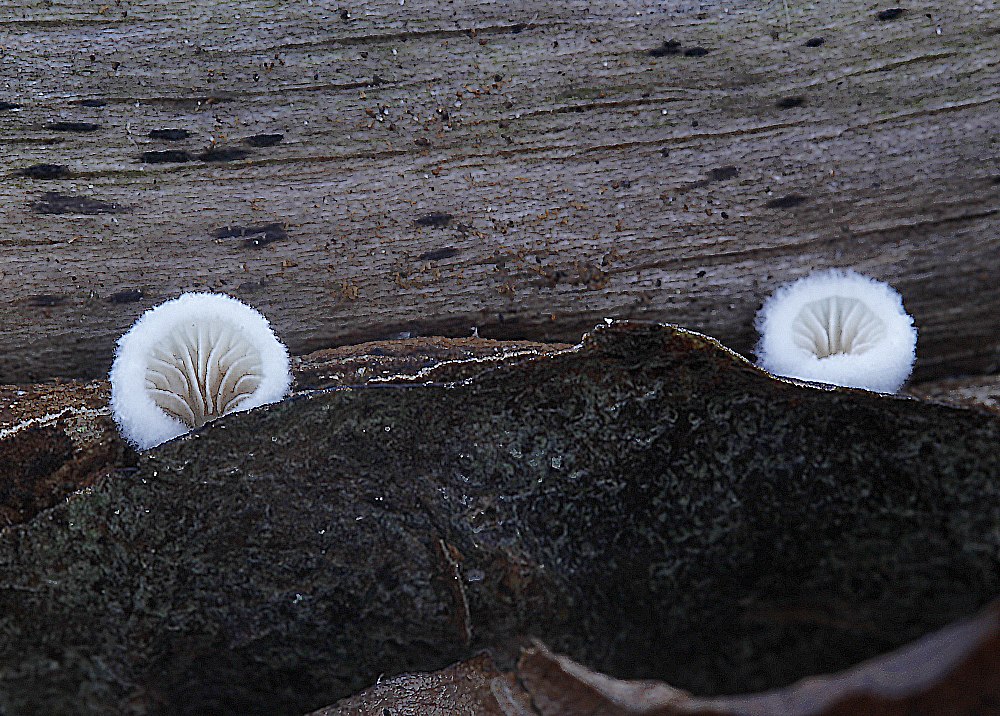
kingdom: Fungi
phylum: Basidiomycota
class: Agaricomycetes
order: Agaricales
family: Entolomataceae
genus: Clitopilus
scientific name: Clitopilus hobsonii
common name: Miller's oysterling
